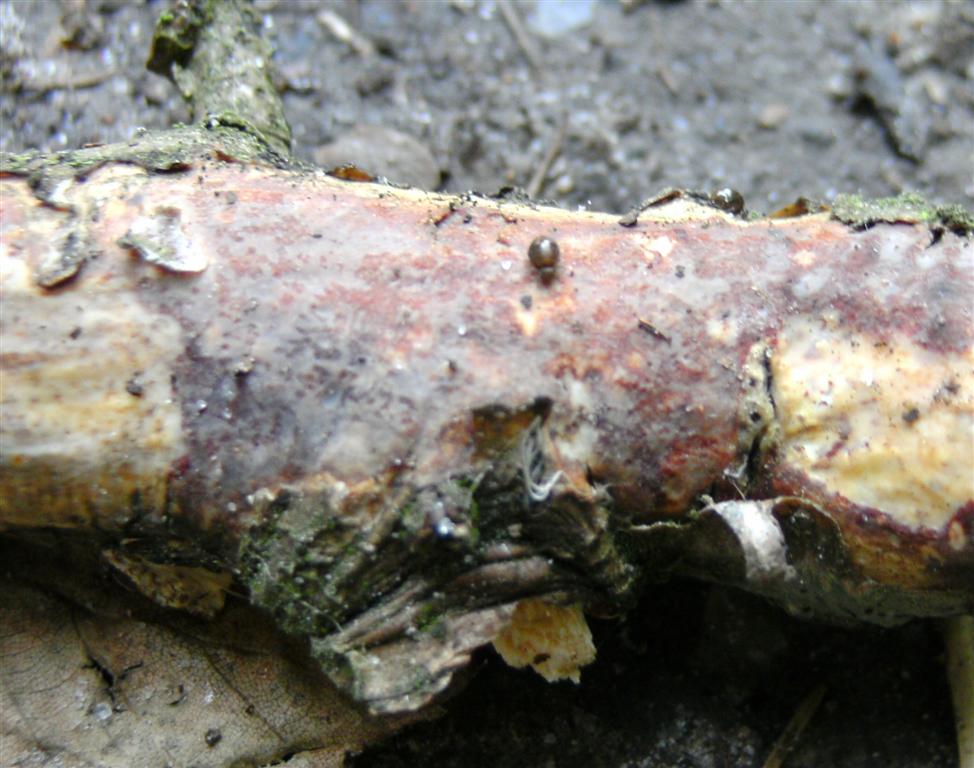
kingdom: Fungi
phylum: Basidiomycota
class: Agaricomycetes
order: Corticiales
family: Vuilleminiaceae
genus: Vuilleminia
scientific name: Vuilleminia comedens
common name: almindelig barksprænger
